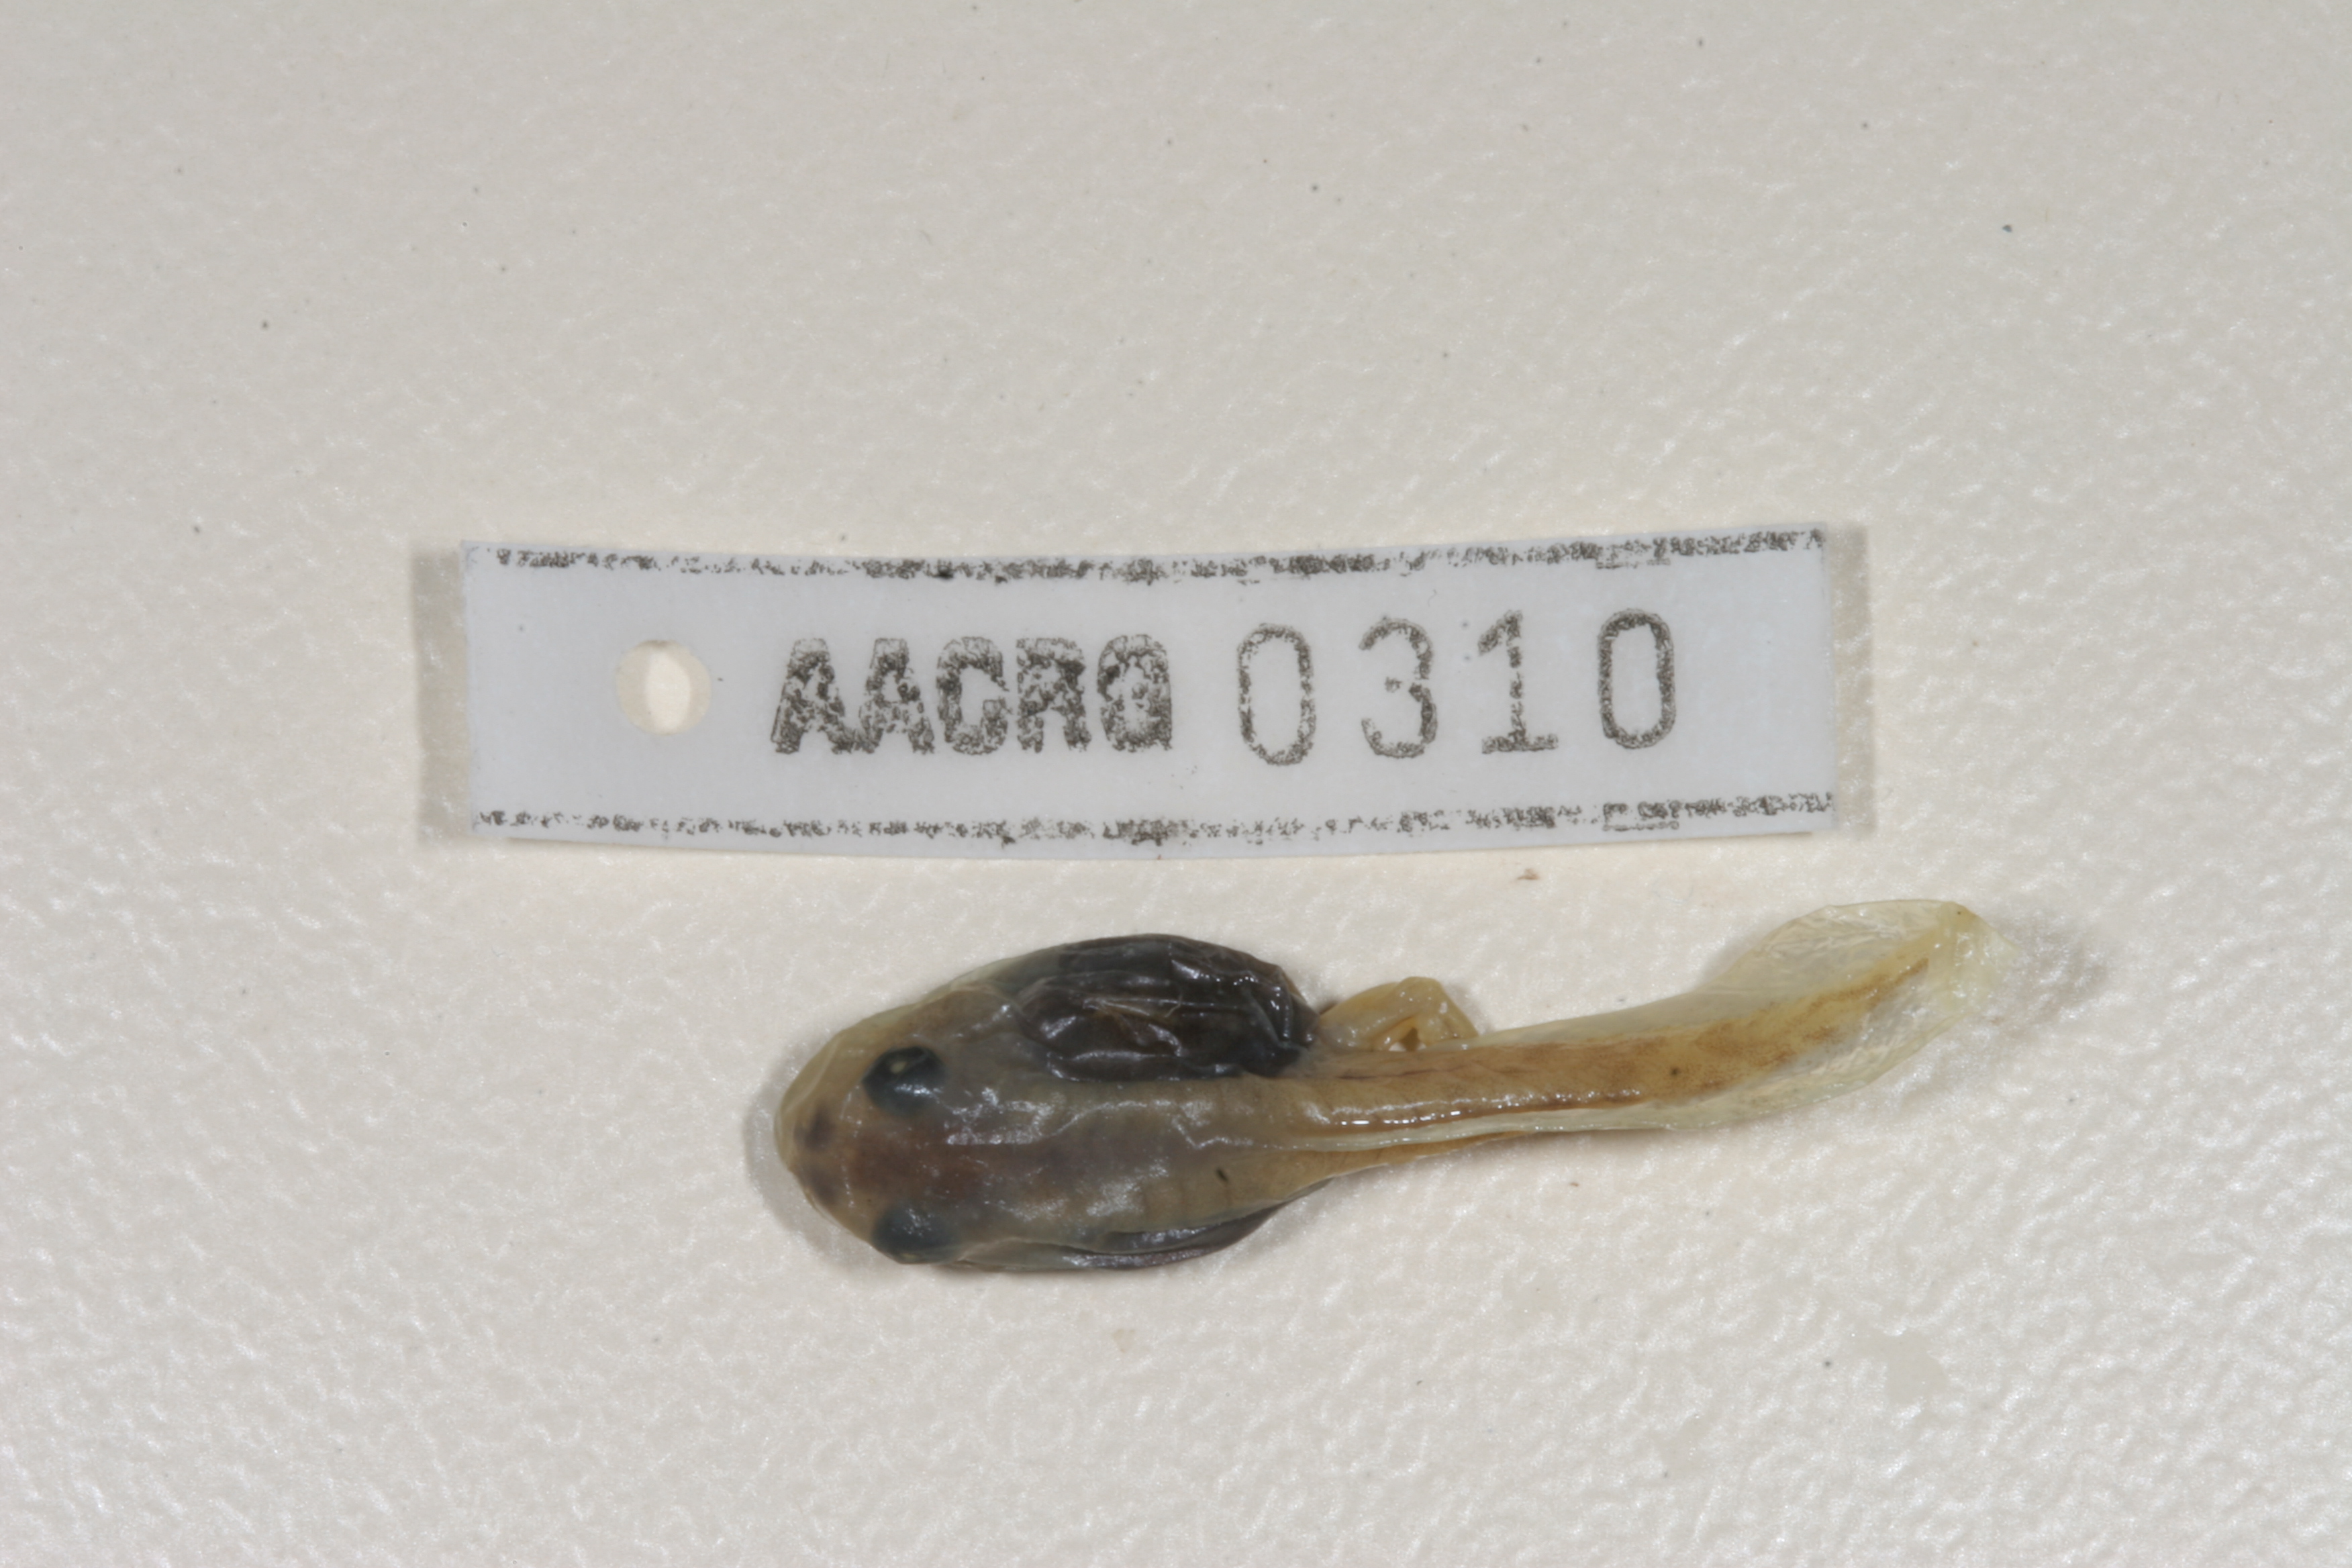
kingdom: Animalia
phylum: Chordata
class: Amphibia
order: Anura
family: Phrynobatrachidae
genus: Phrynobatrachus
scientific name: Phrynobatrachus natalensis
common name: Snoring puddle frog
